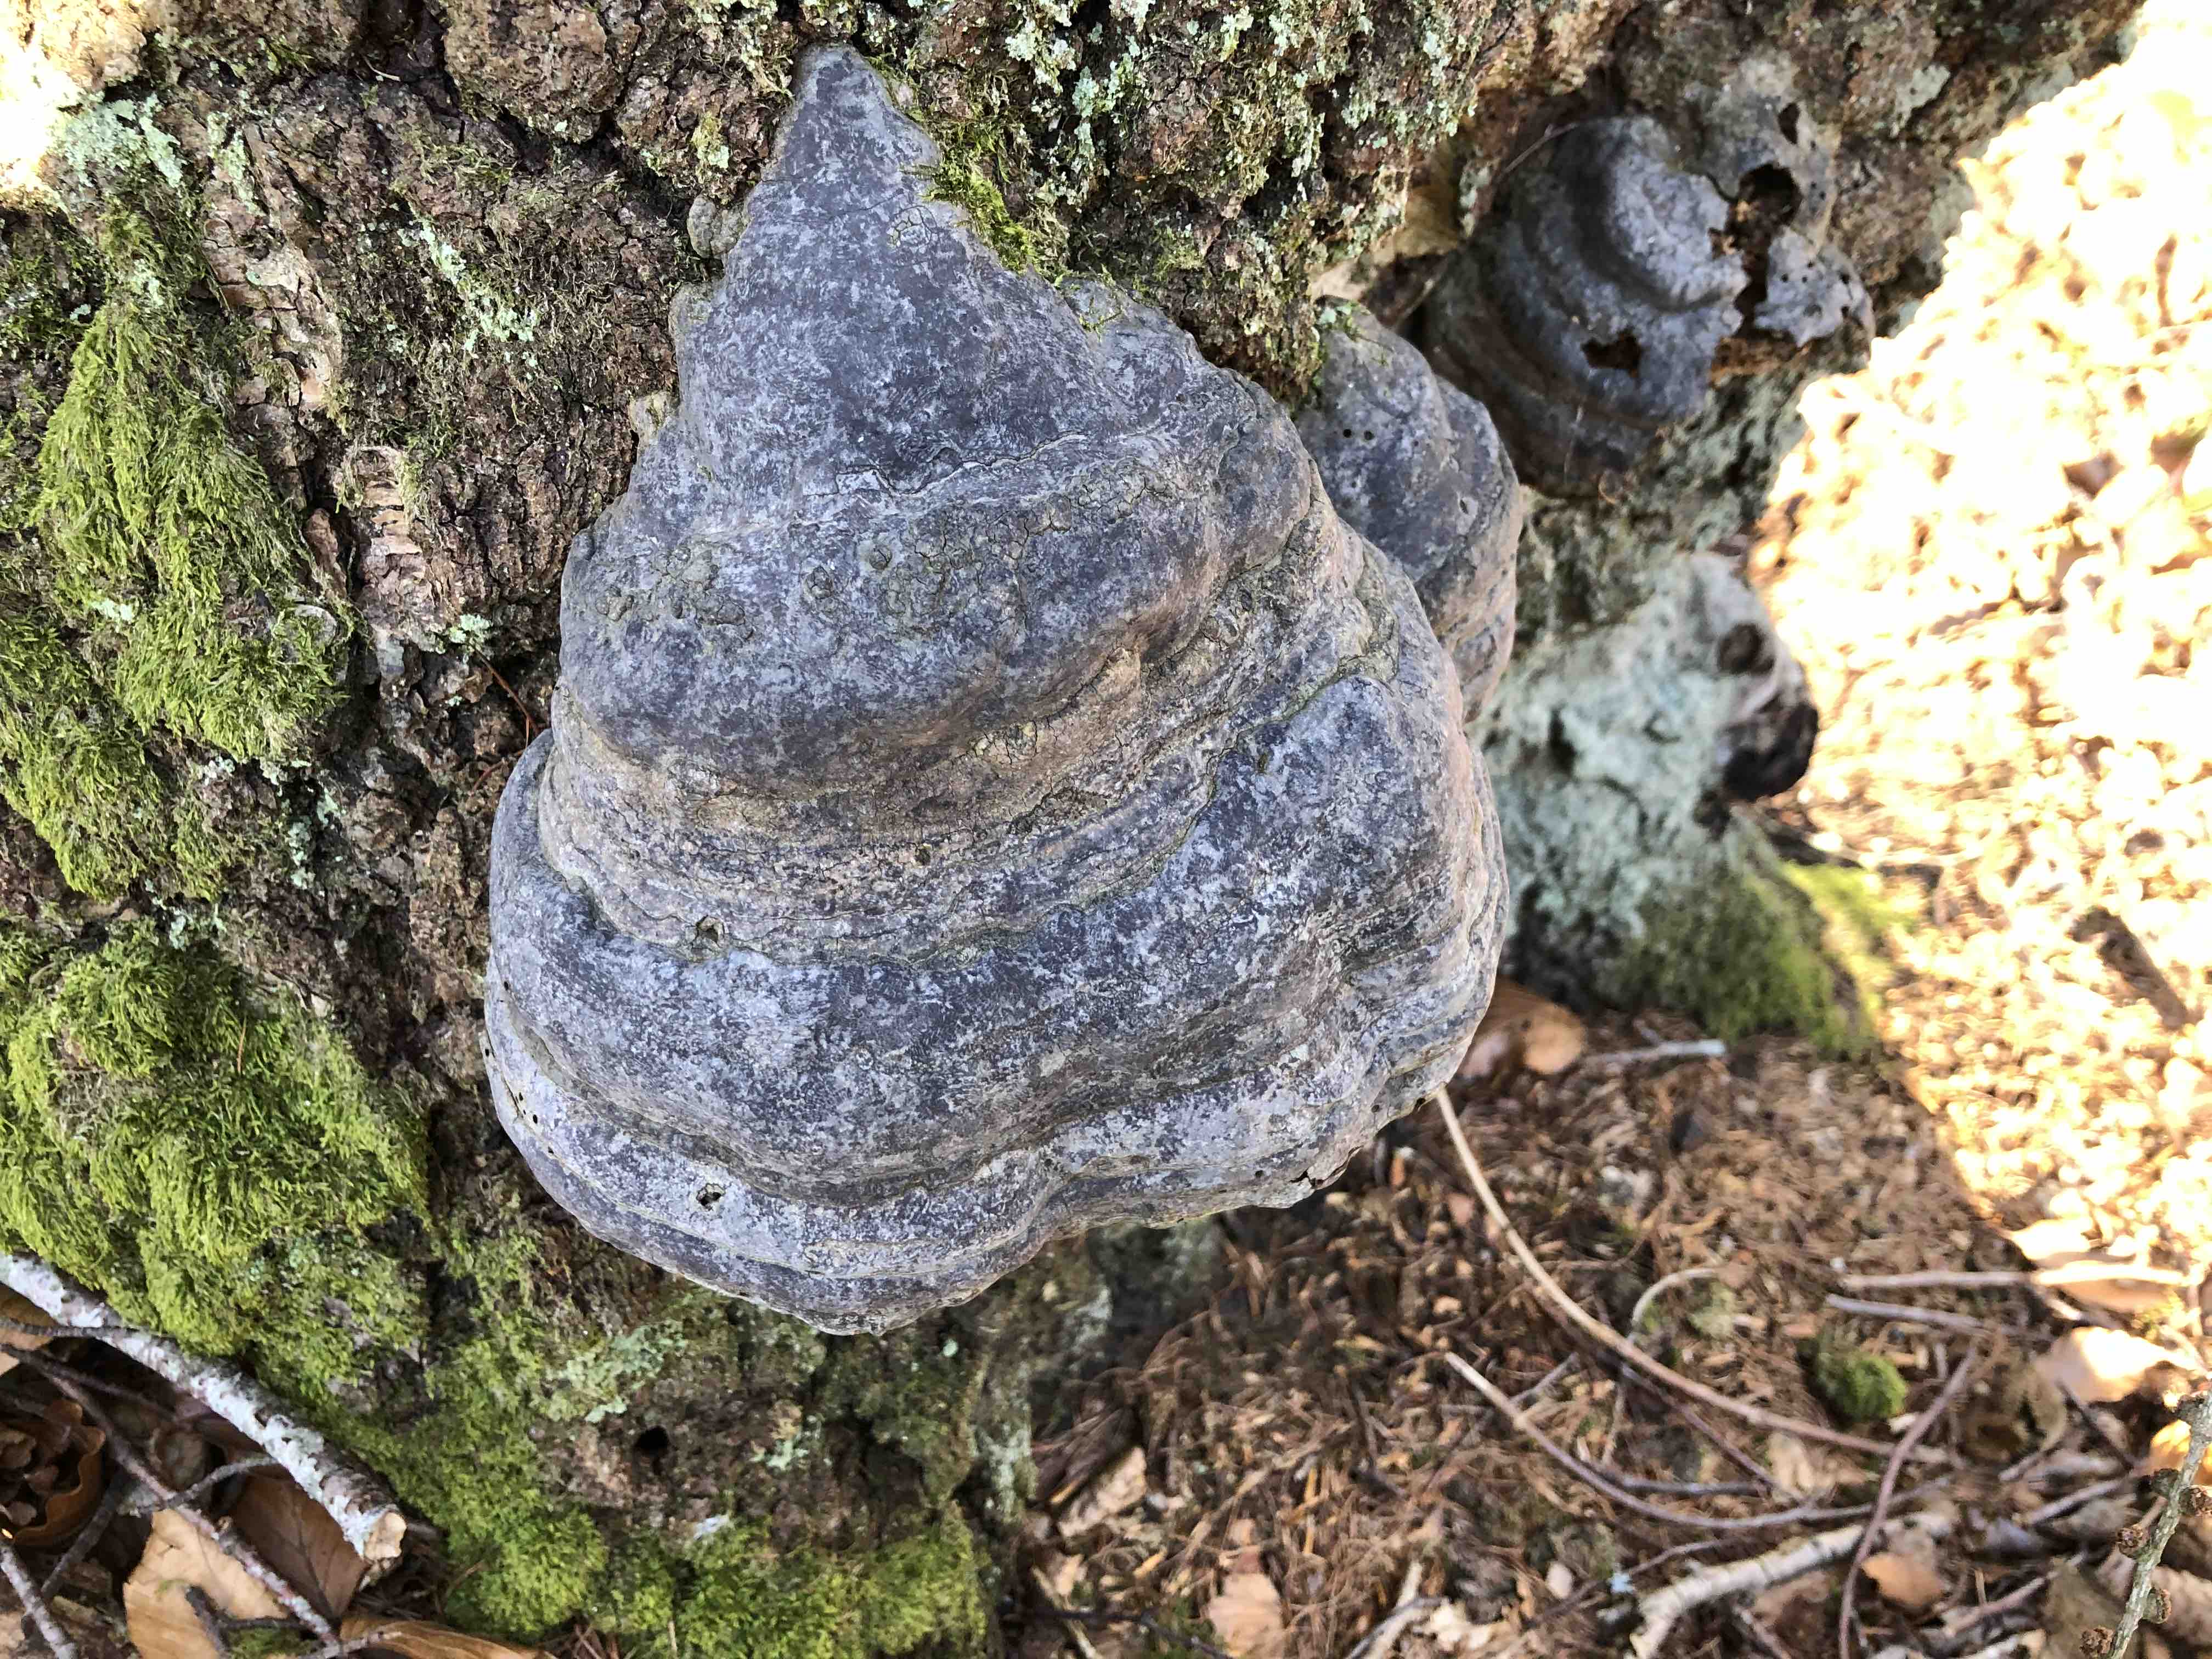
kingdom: Fungi
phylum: Basidiomycota
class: Agaricomycetes
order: Polyporales
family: Polyporaceae
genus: Fomes
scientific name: Fomes fomentarius
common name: tøndersvamp
